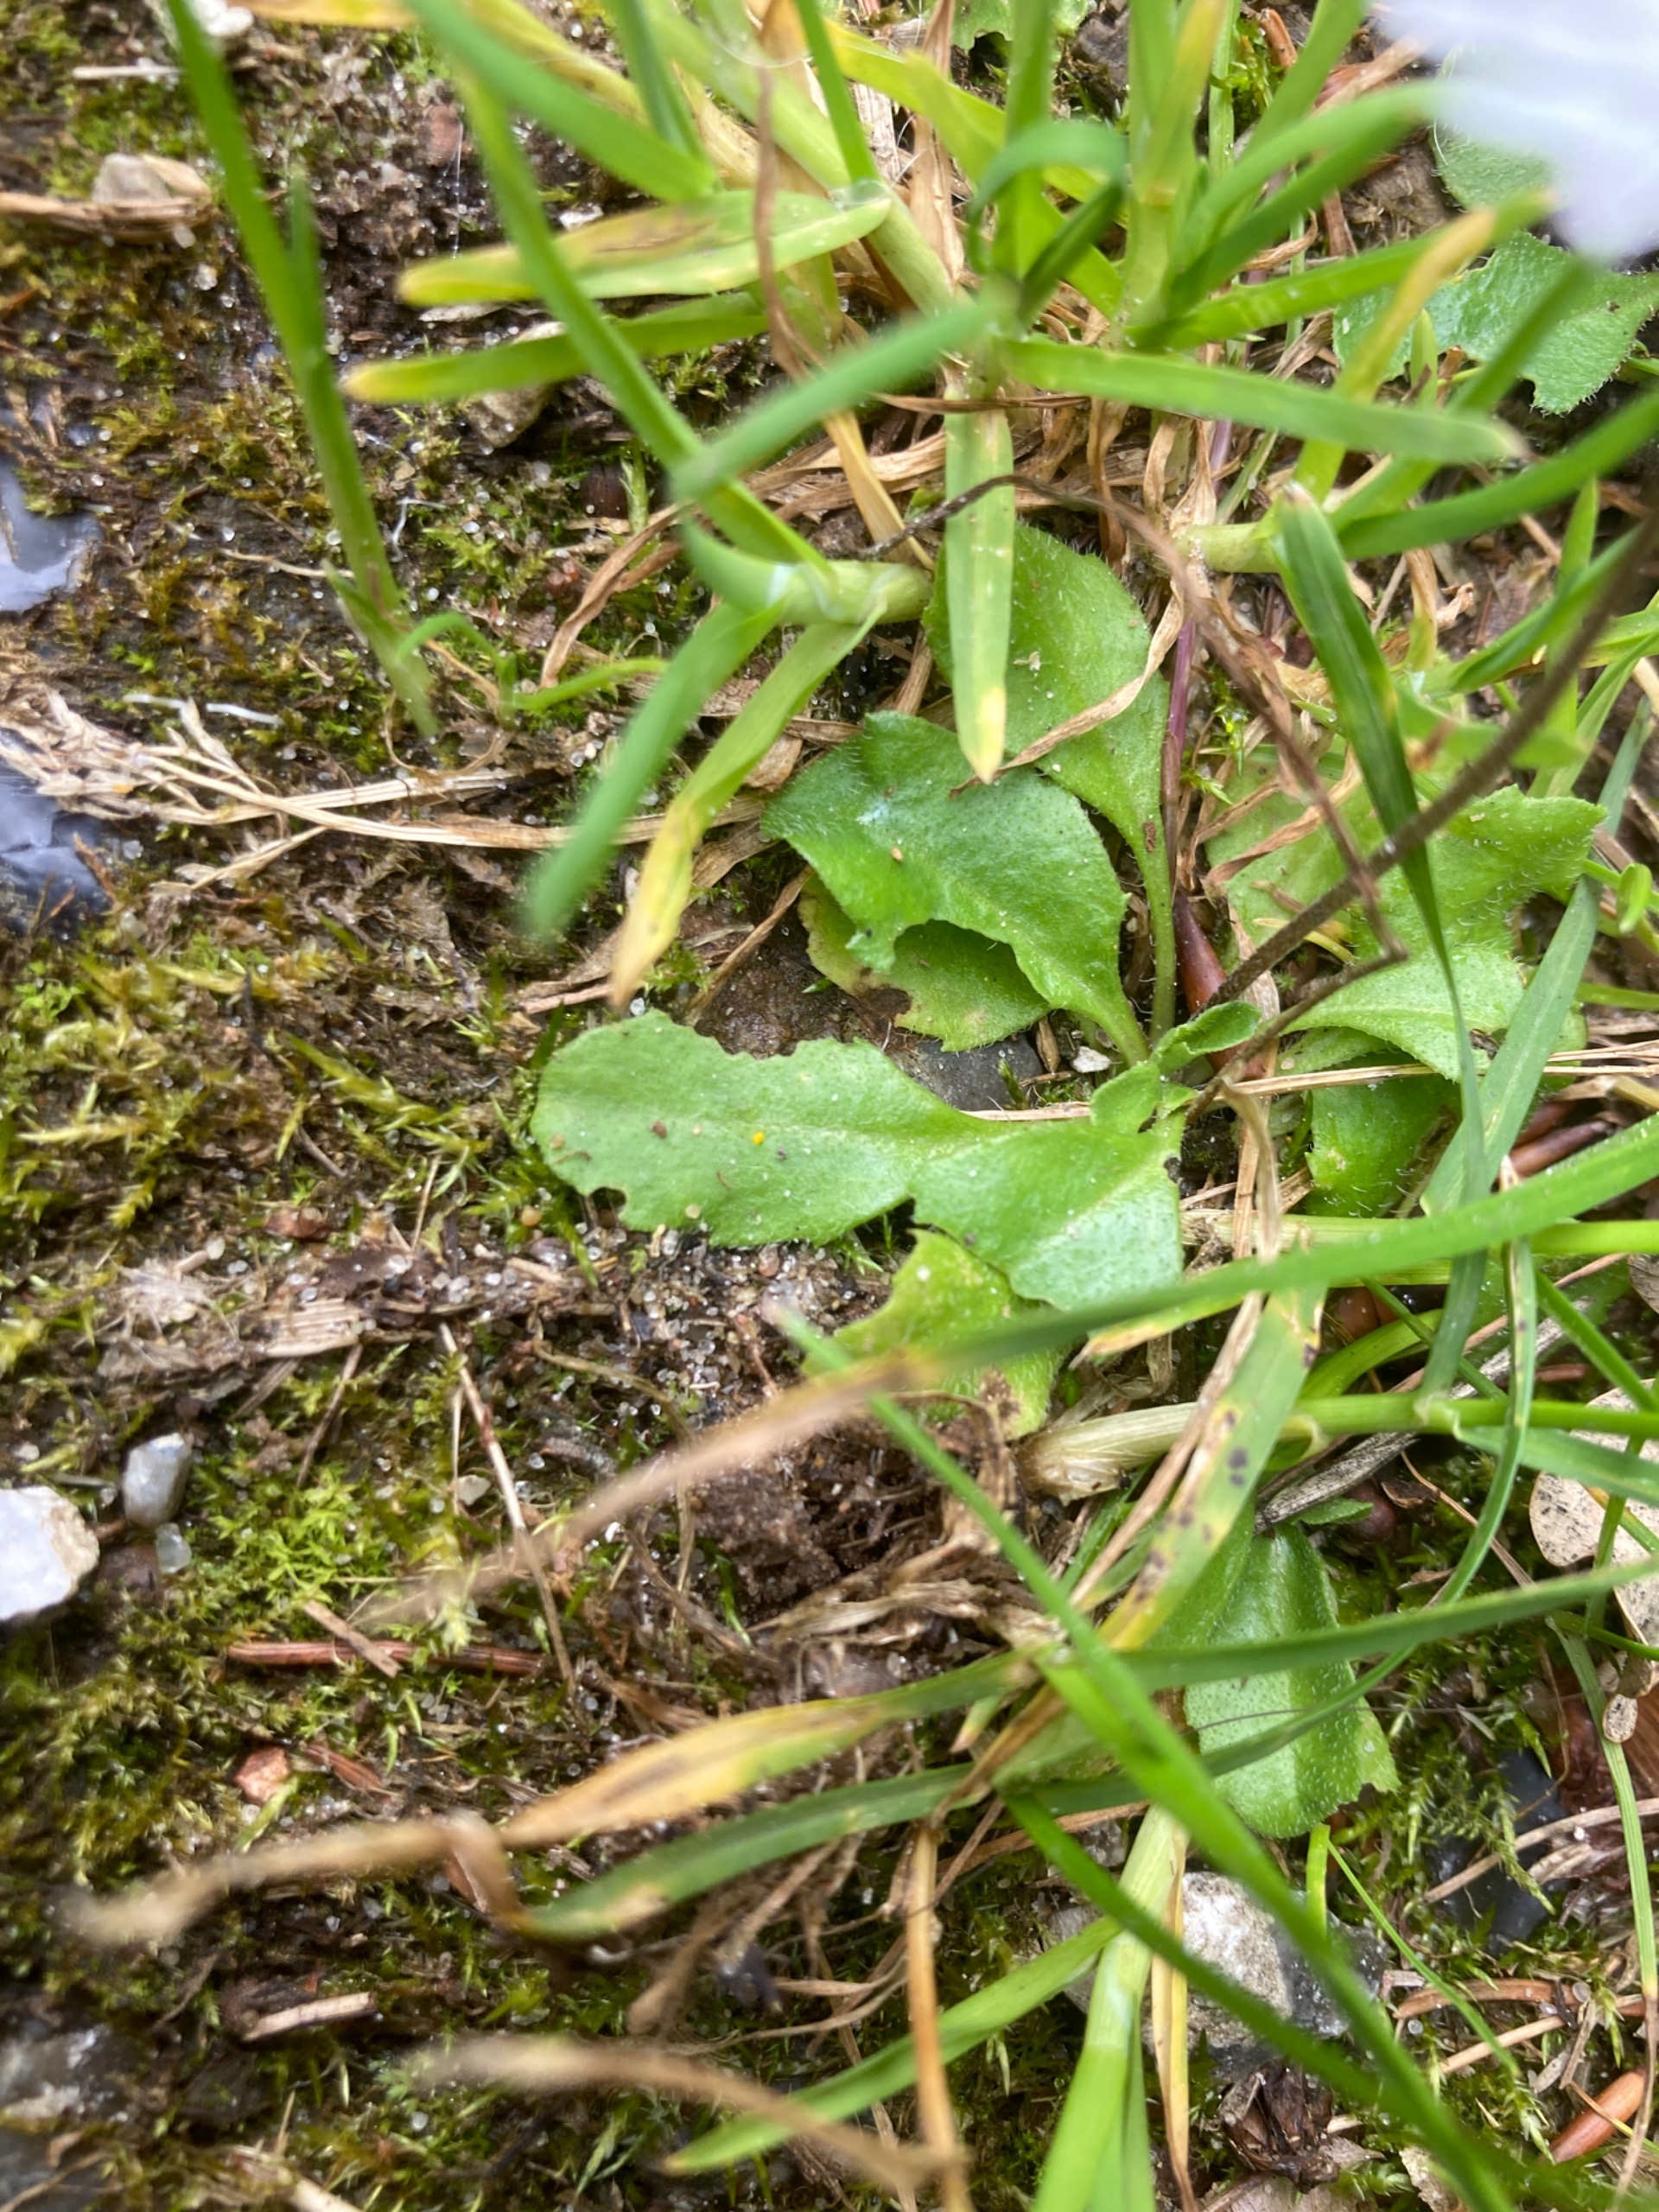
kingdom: Plantae
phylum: Tracheophyta
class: Magnoliopsida
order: Asterales
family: Asteraceae
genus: Bellis
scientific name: Bellis perennis
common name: Tusindfryd
